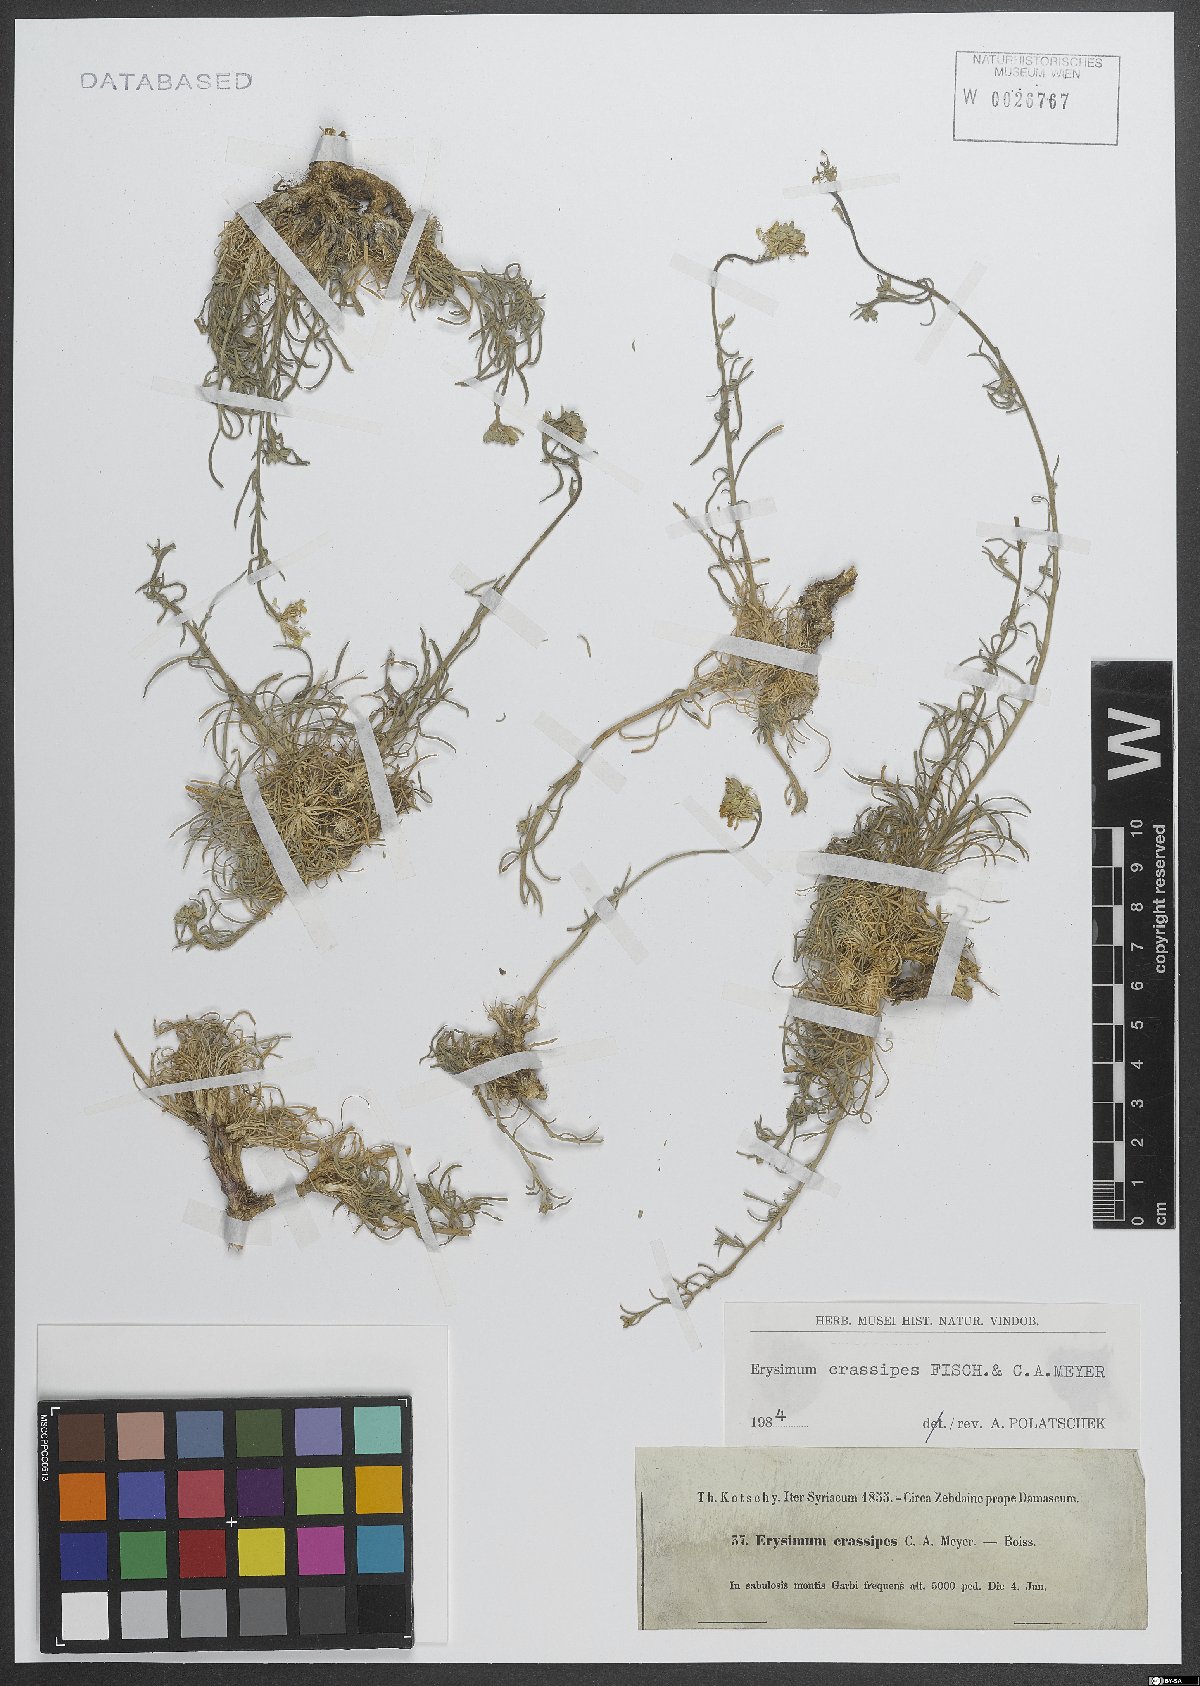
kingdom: Plantae
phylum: Tracheophyta
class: Magnoliopsida
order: Brassicales
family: Brassicaceae
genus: Erysimum
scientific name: Erysimum crassipes
